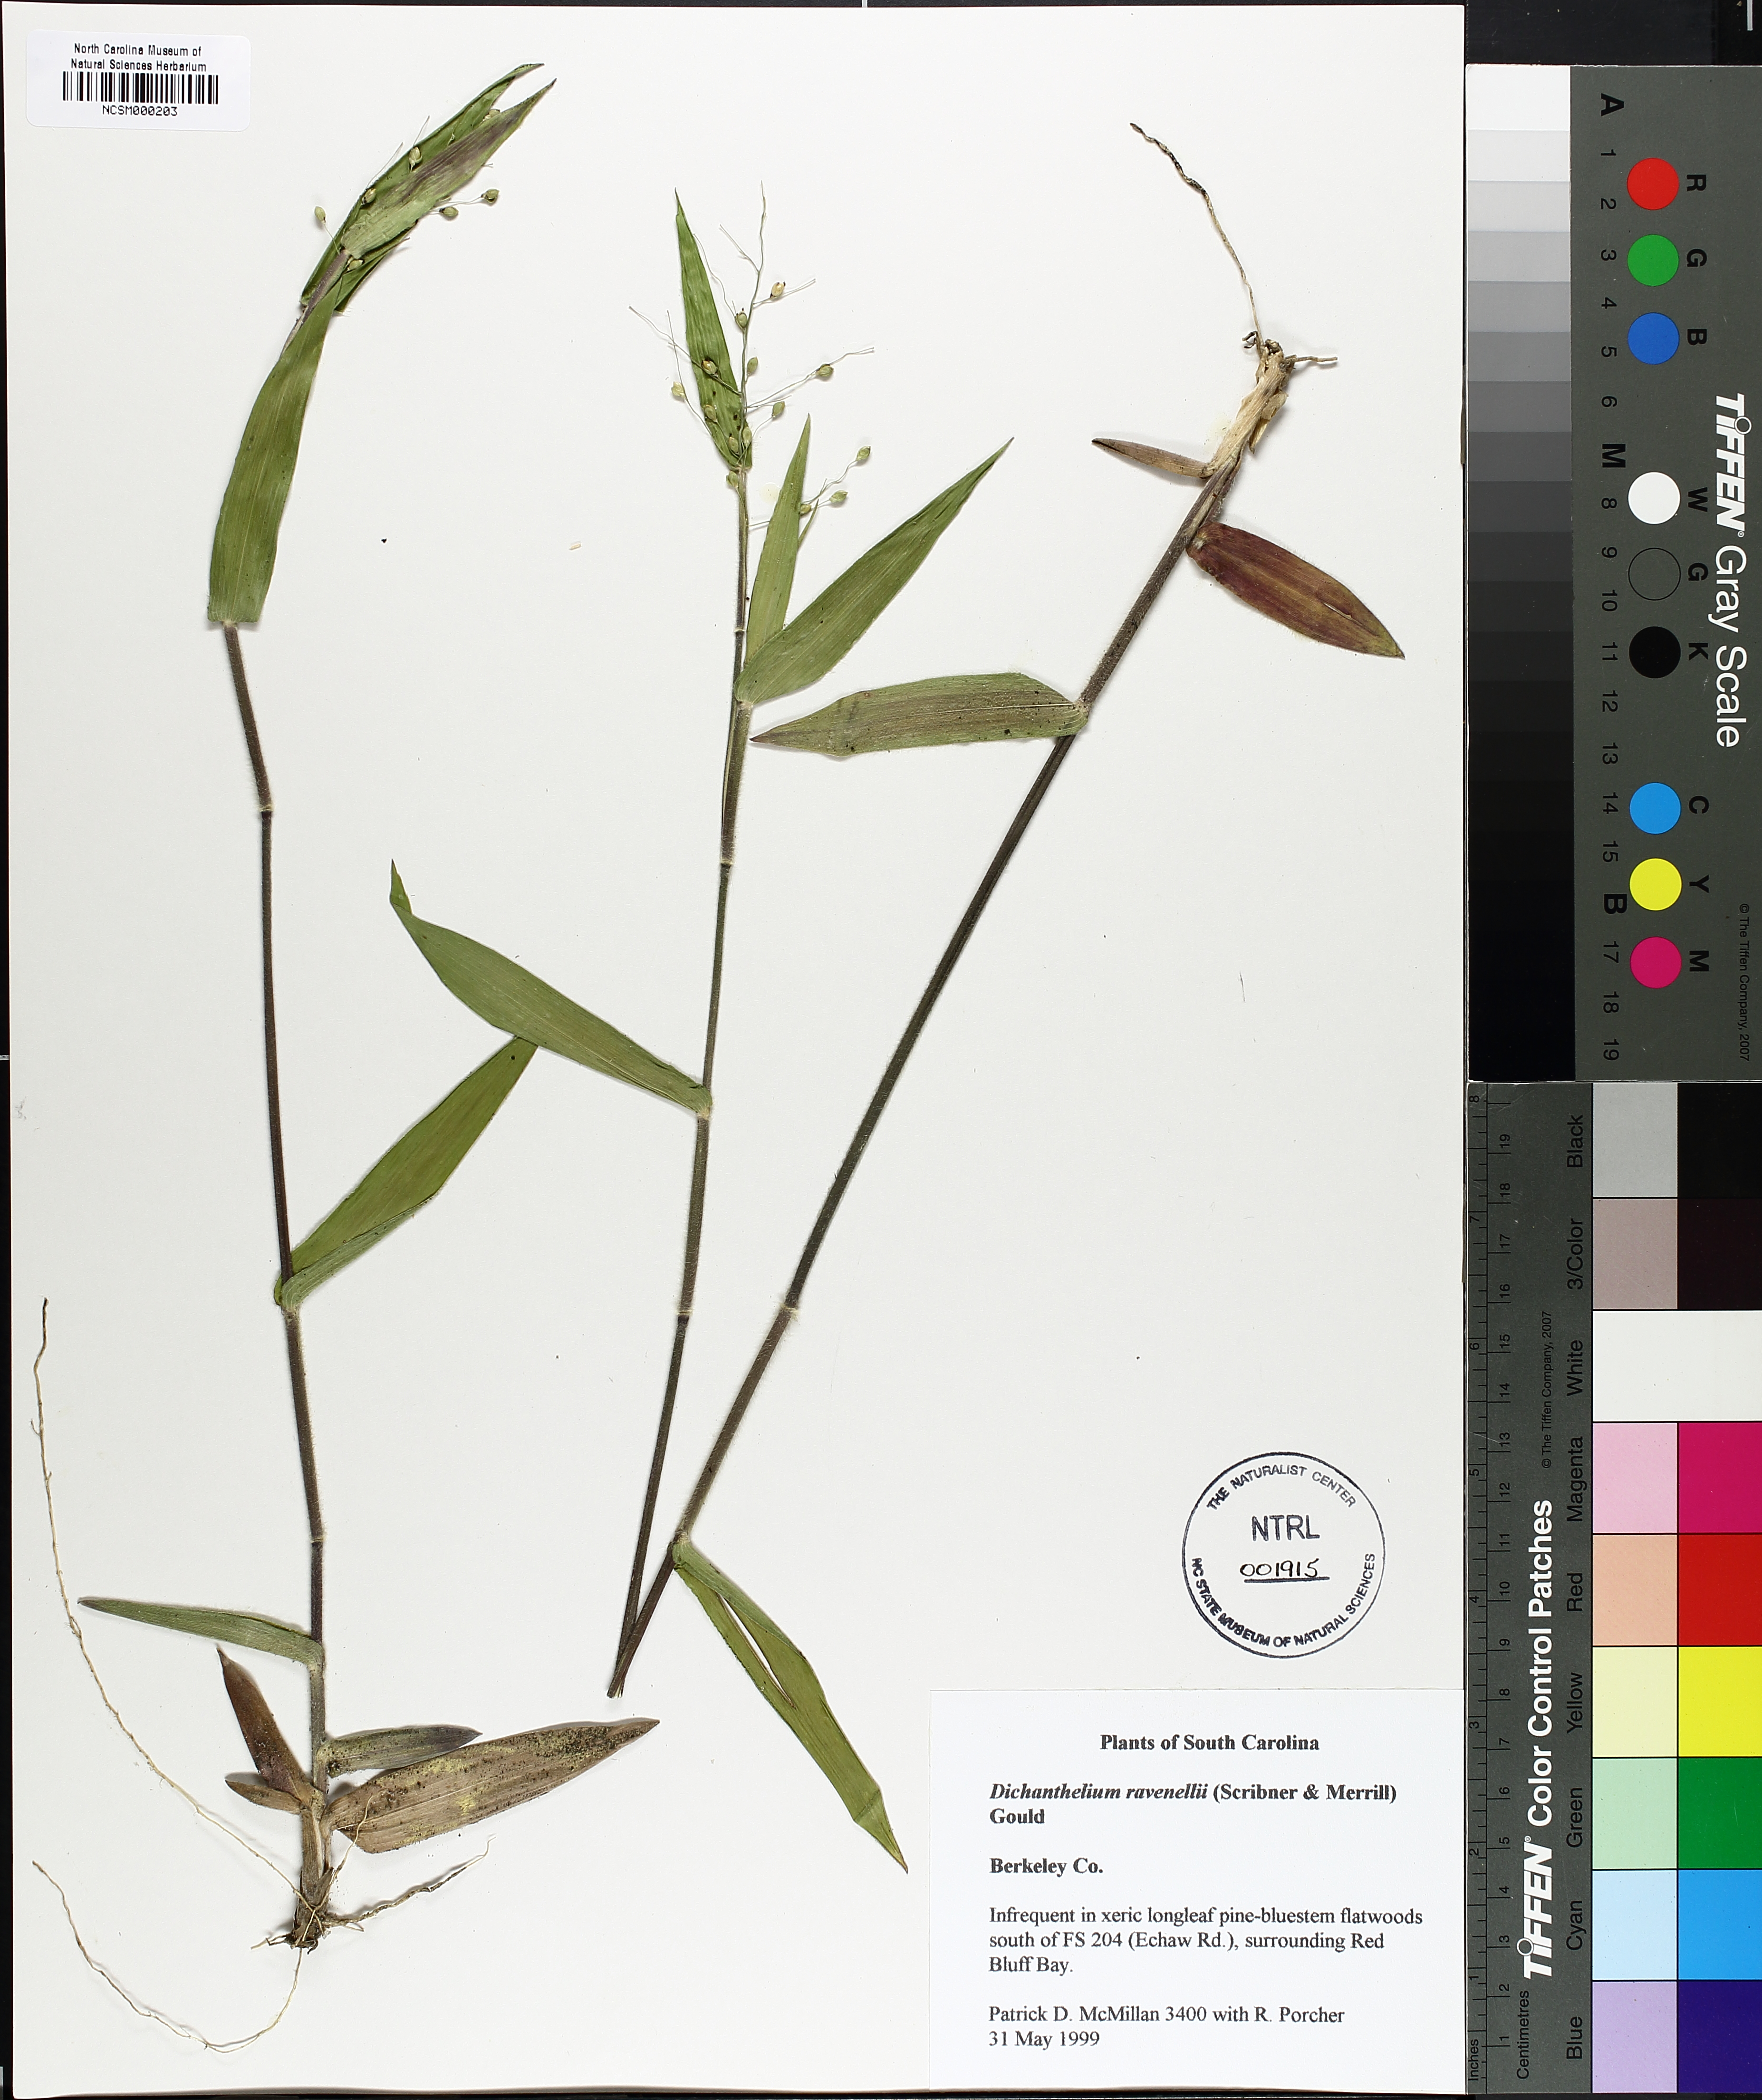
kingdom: Plantae
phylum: Tracheophyta
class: Liliopsida
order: Poales
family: Poaceae
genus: Dichanthelium
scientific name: Dichanthelium ravenelii
